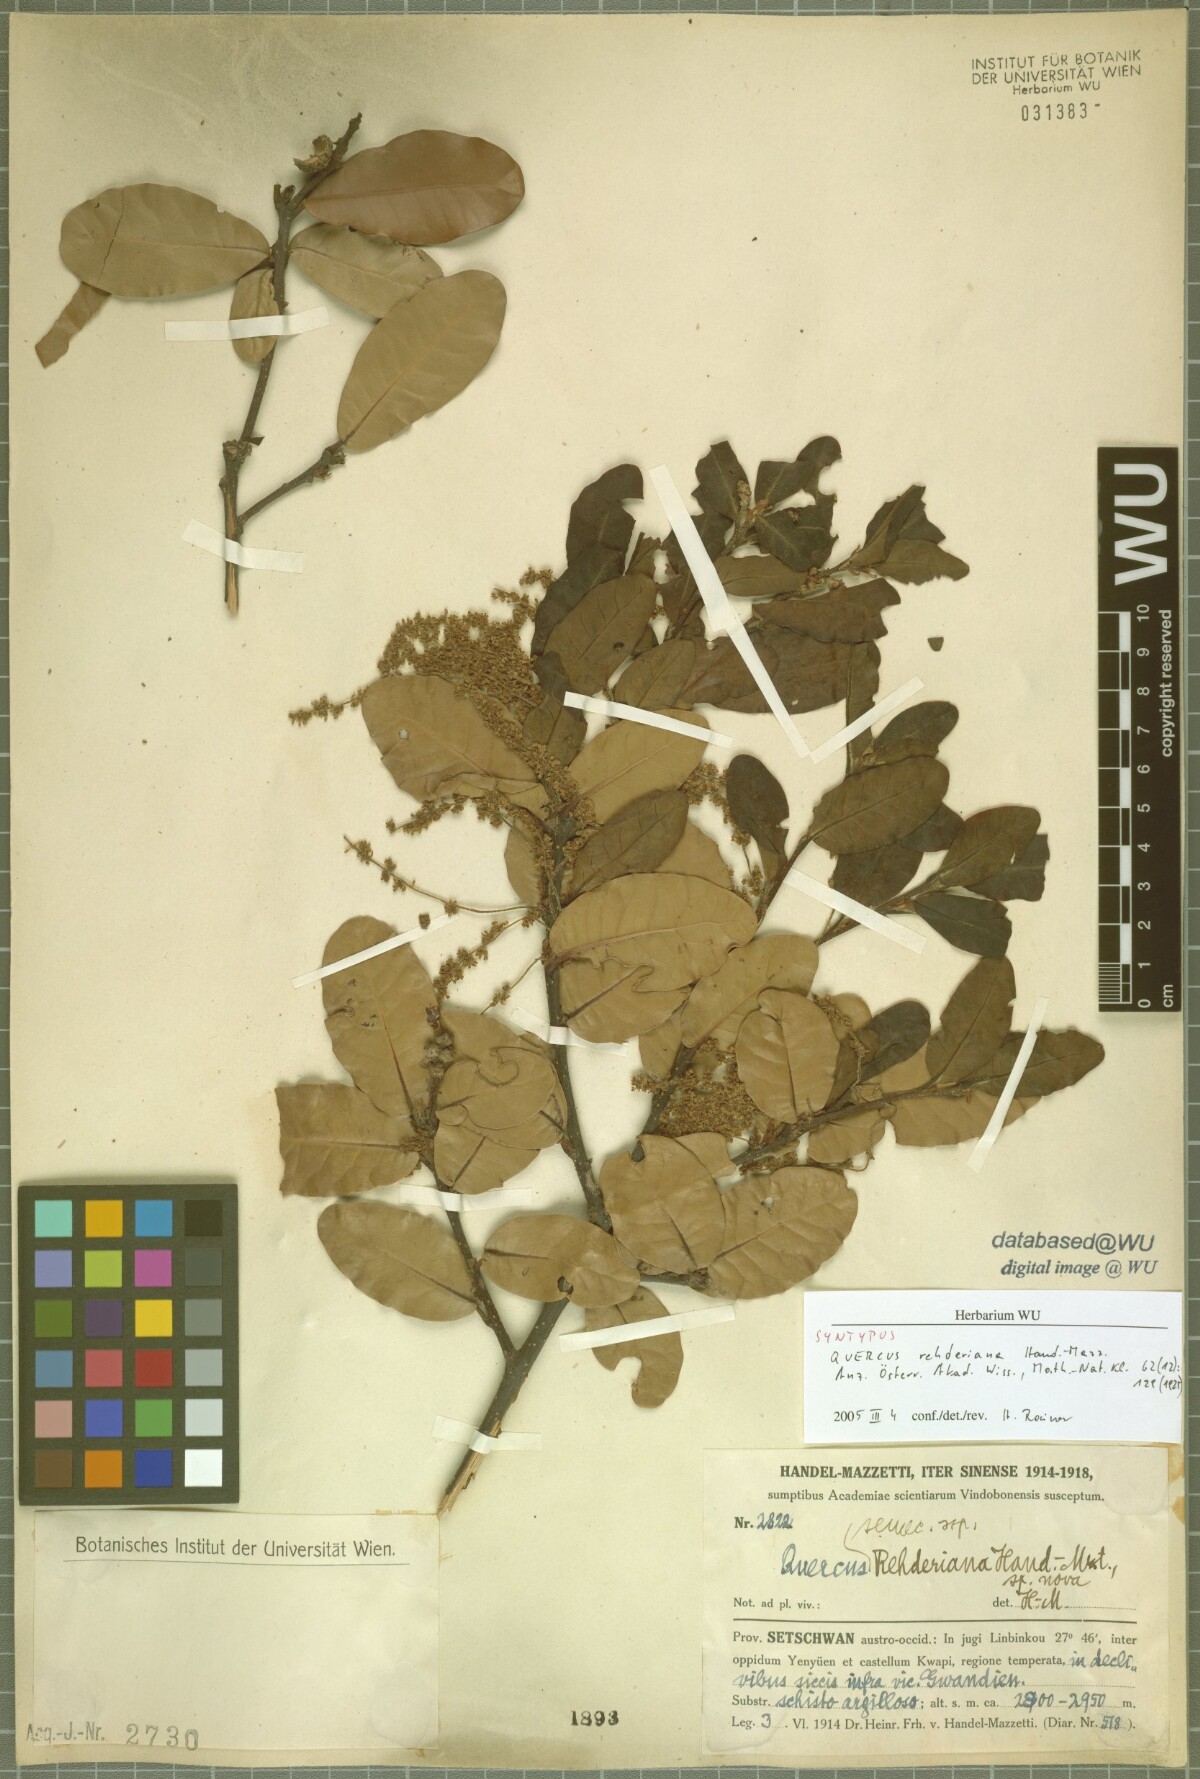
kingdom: Plantae
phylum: Tracheophyta
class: Magnoliopsida
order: Fagales
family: Fagaceae
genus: Quercus
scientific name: Quercus rehderiana
